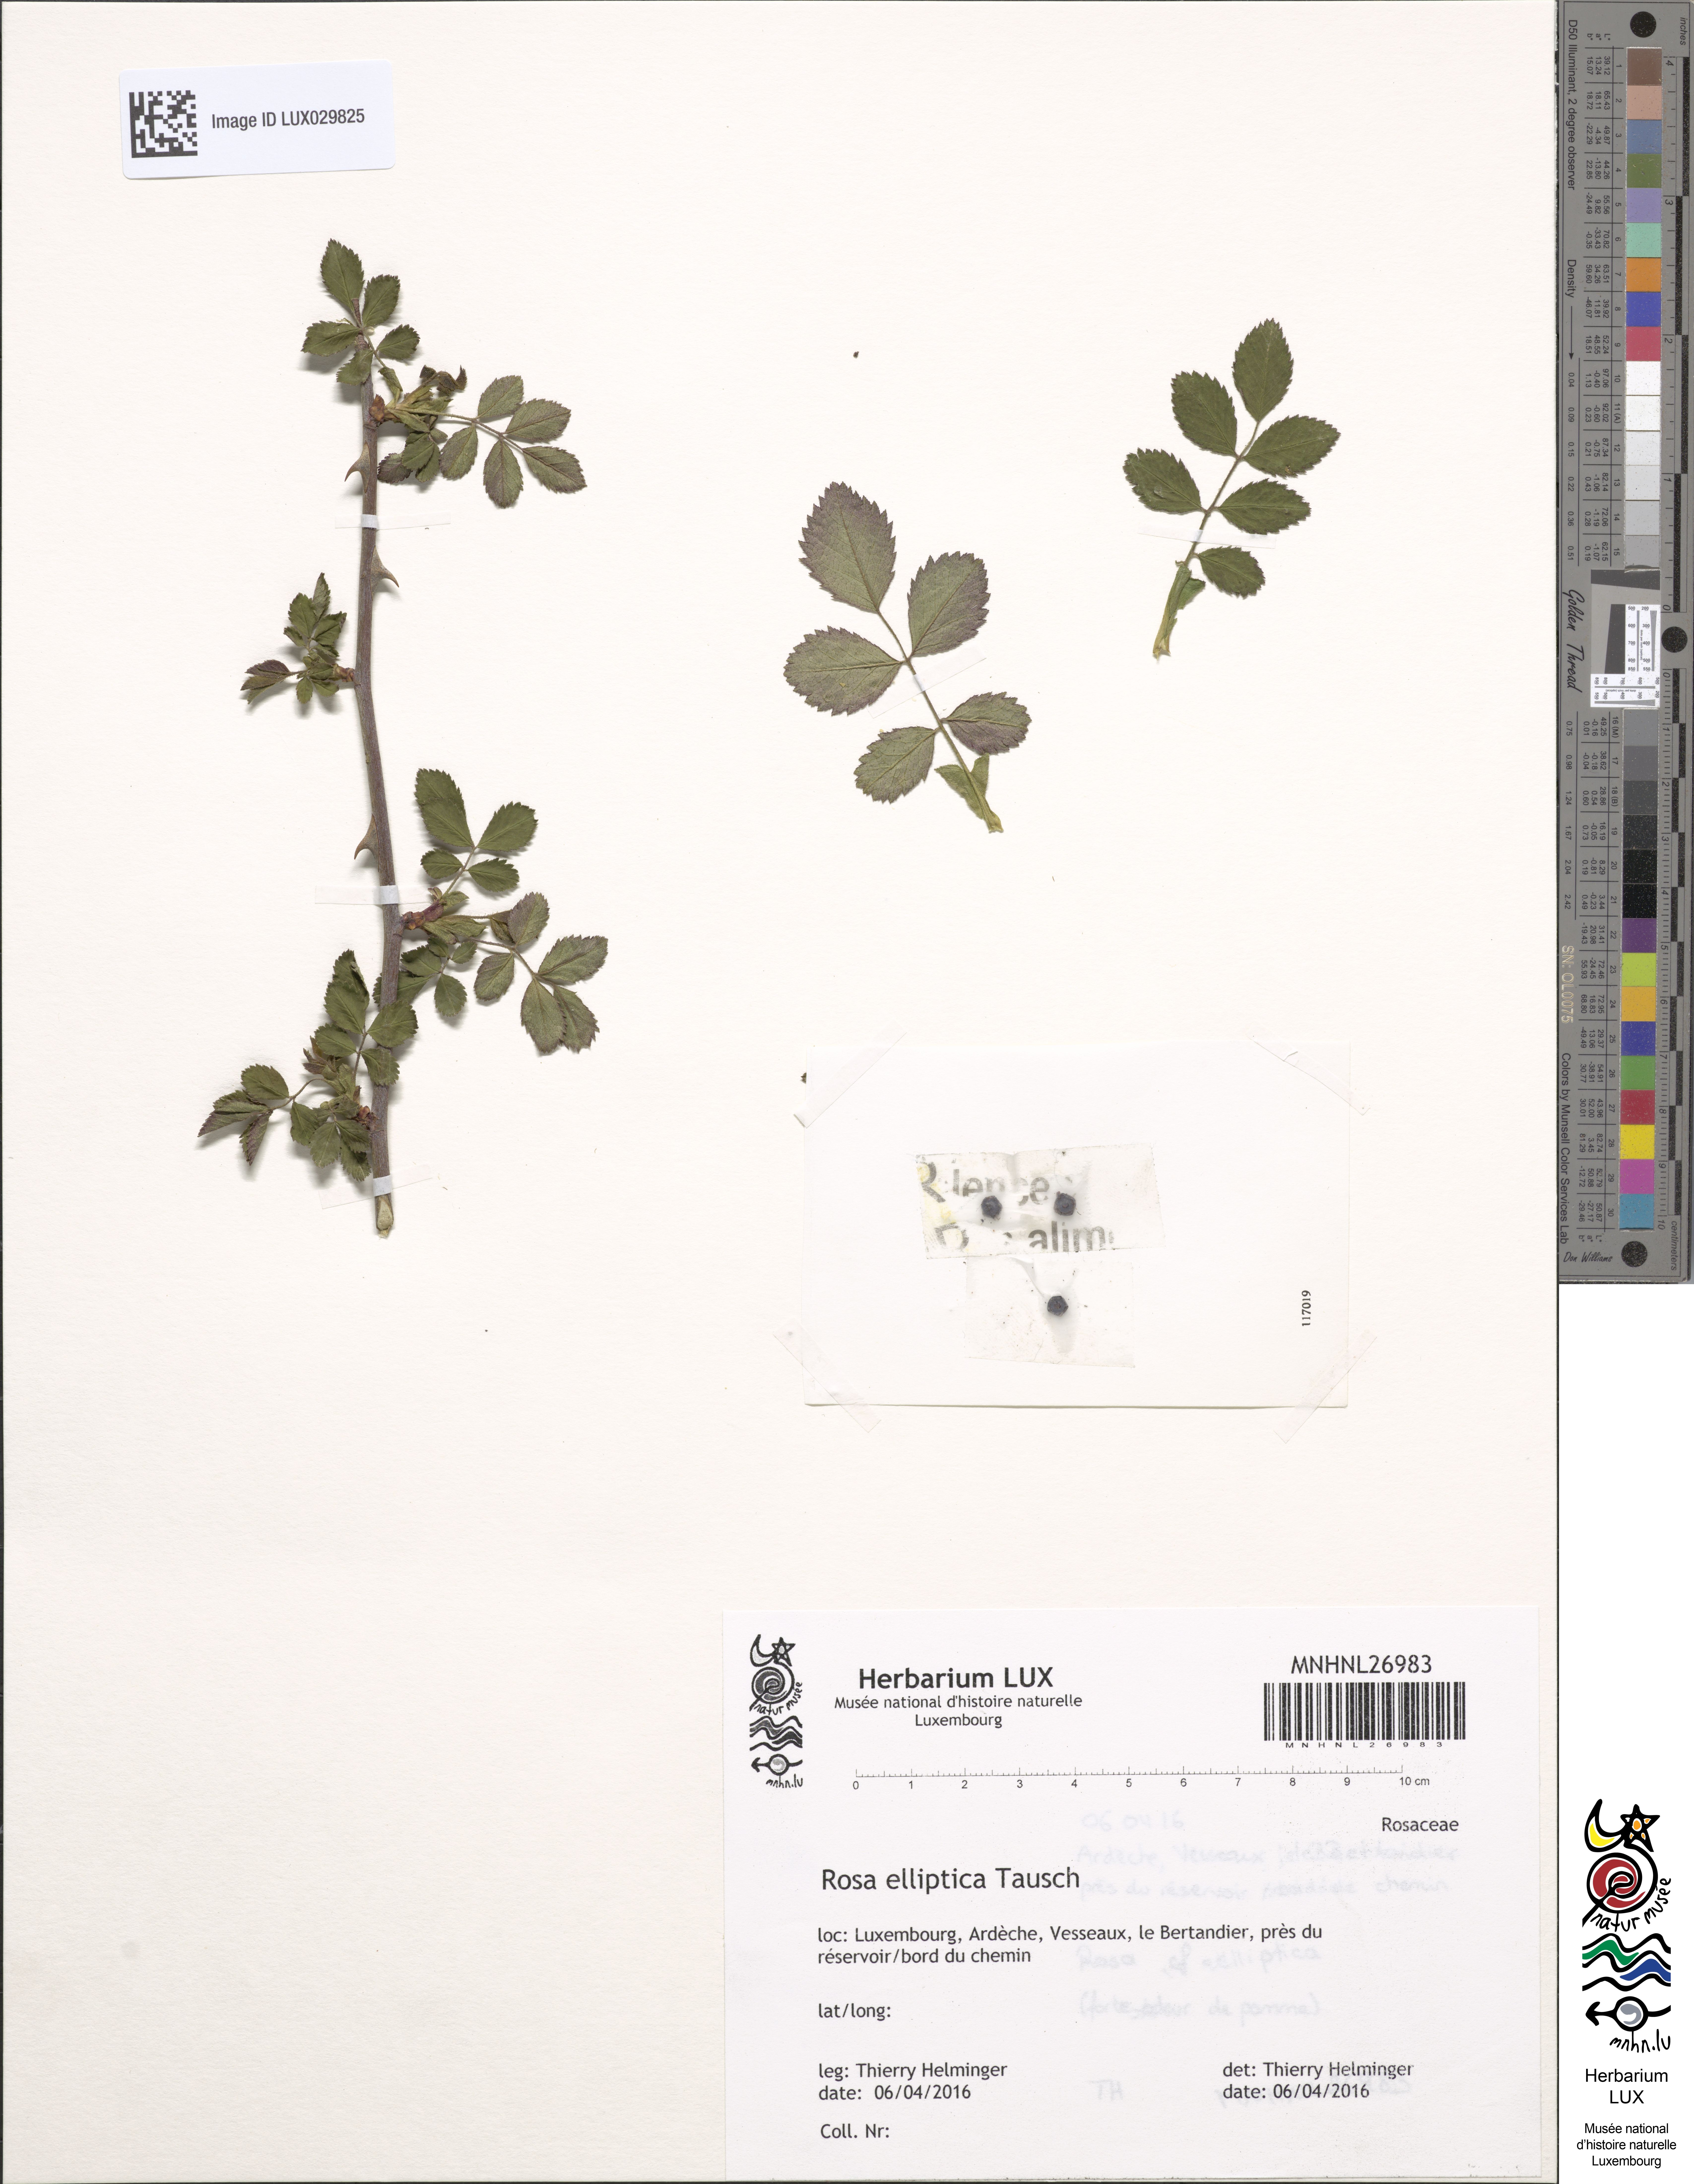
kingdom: Plantae
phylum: Tracheophyta
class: Magnoliopsida
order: Rosales
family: Rosaceae
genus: Rosa
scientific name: Rosa inodora
